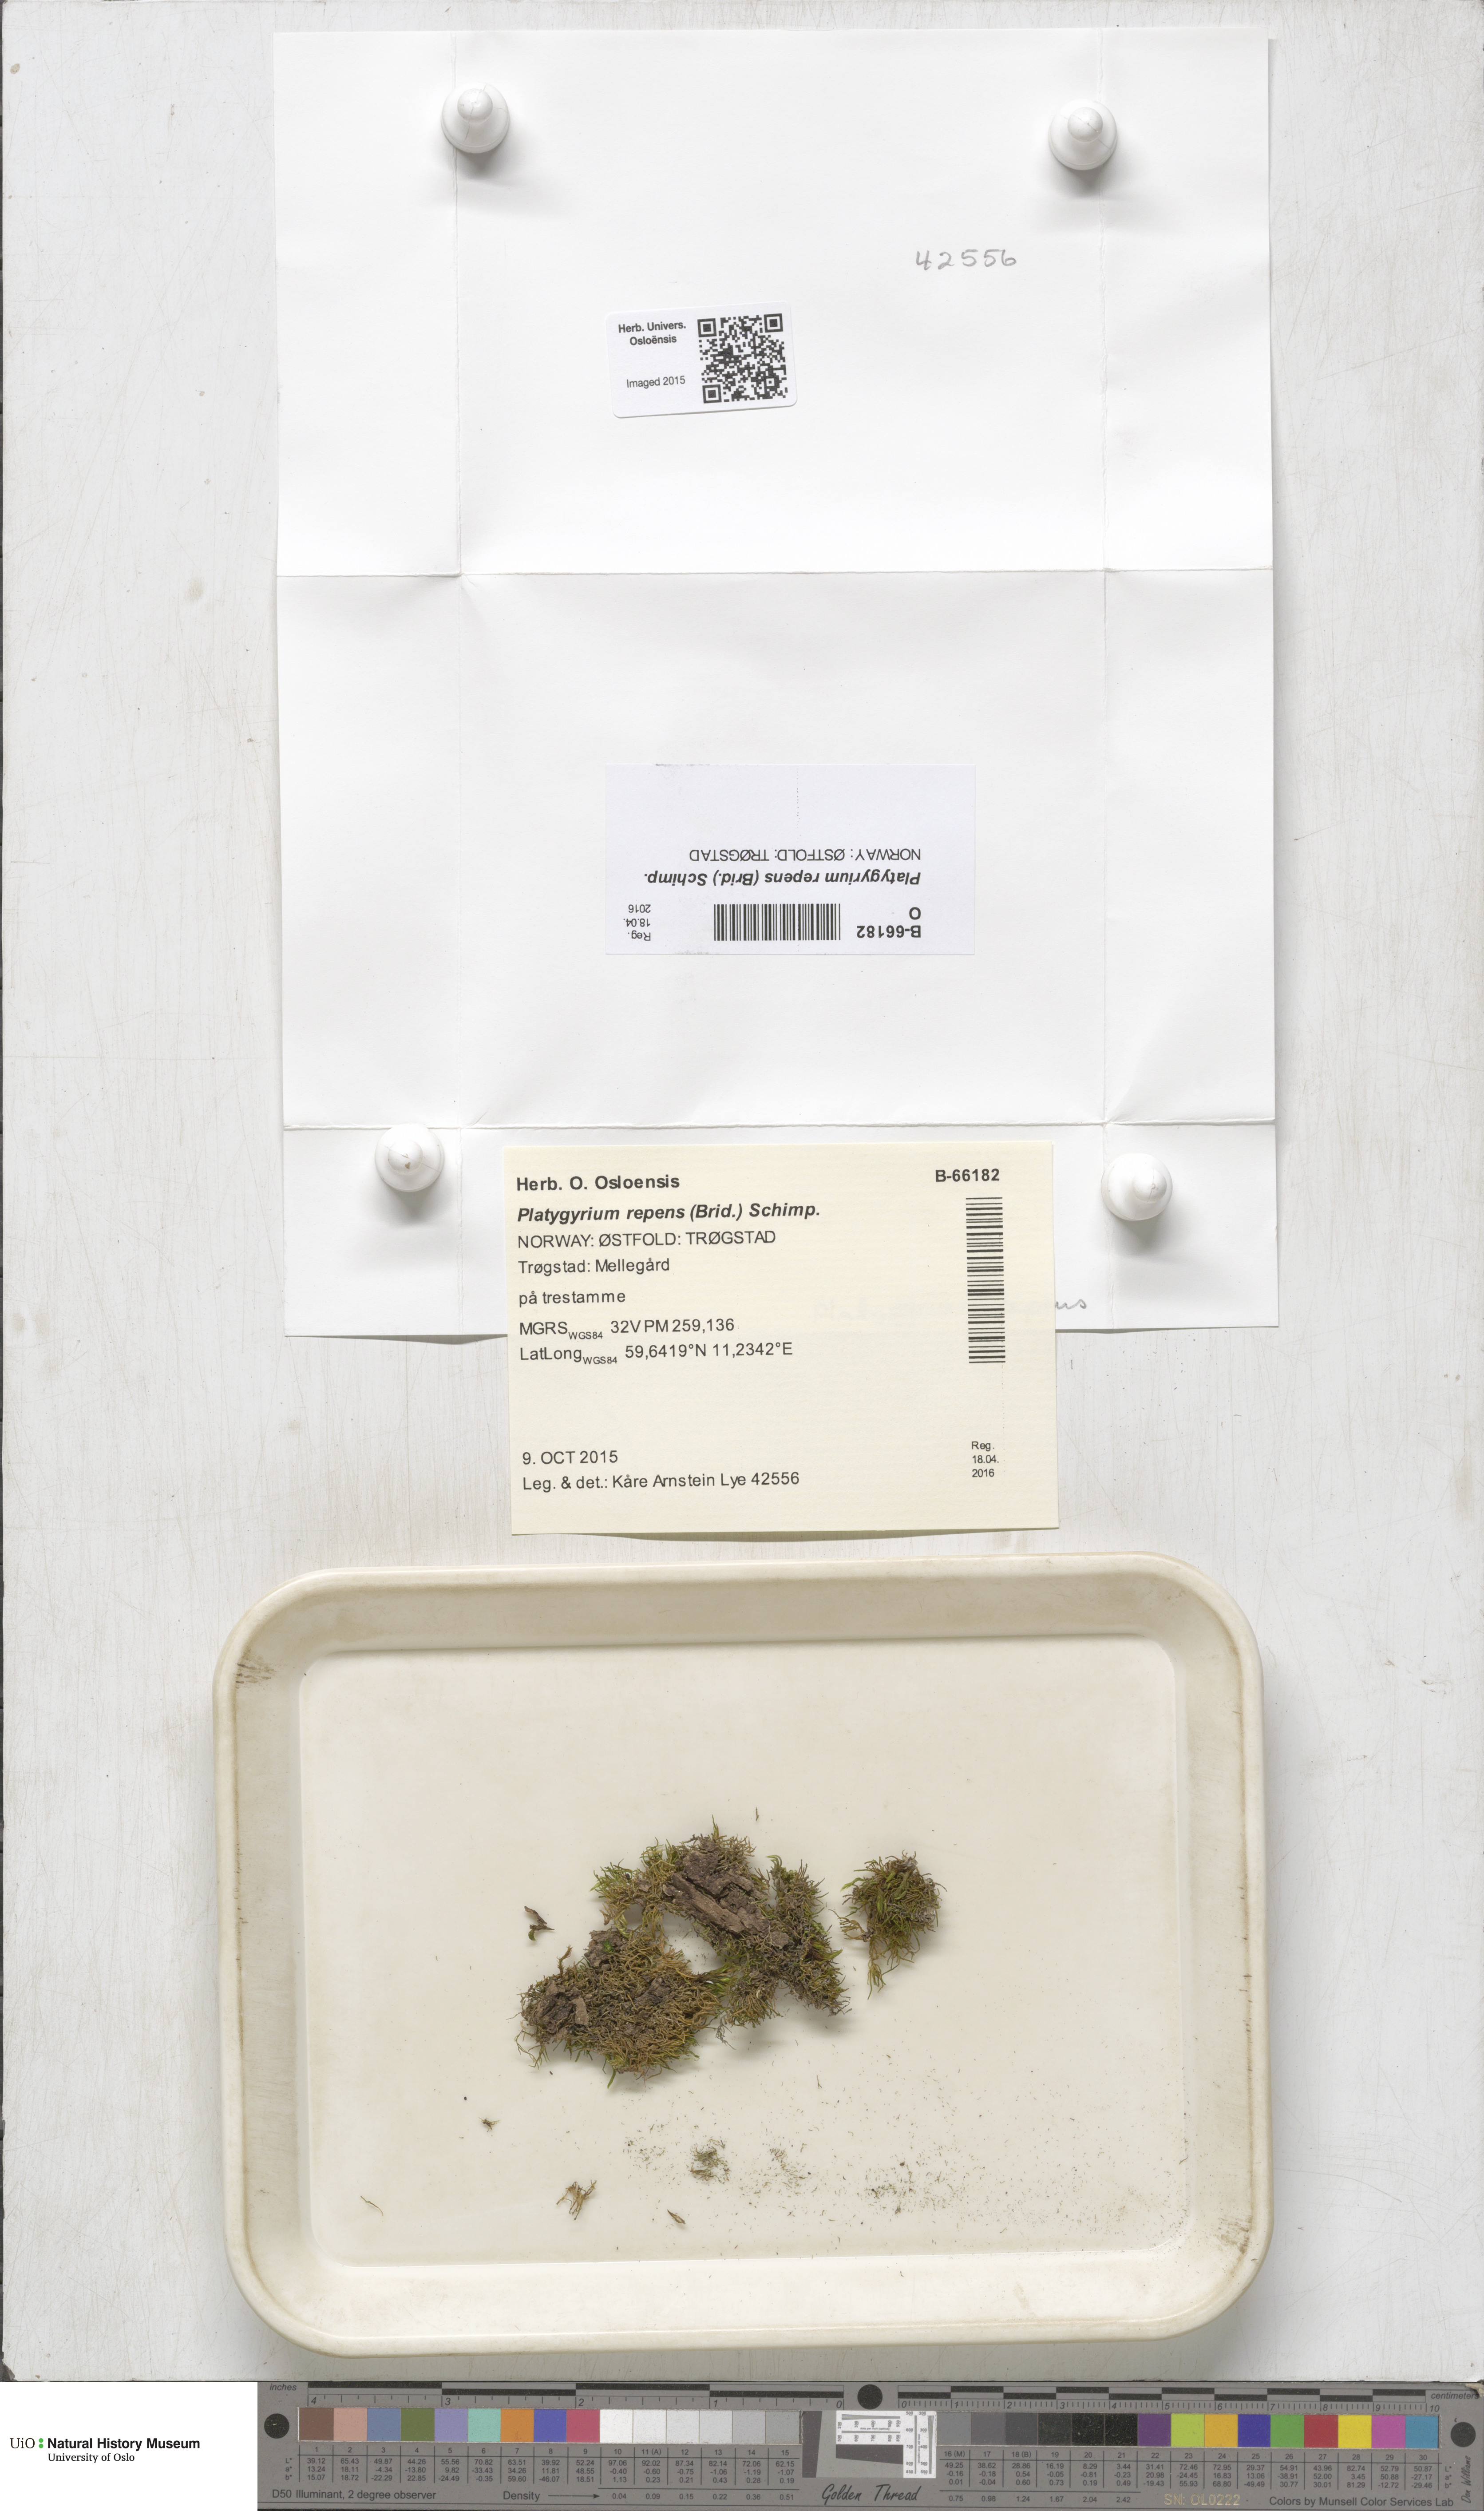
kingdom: Plantae
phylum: Bryophyta
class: Bryopsida
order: Hypnales
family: Pylaisiadelphaceae
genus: Platygyrium
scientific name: Platygyrium repens
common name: Flat-brocade moss
